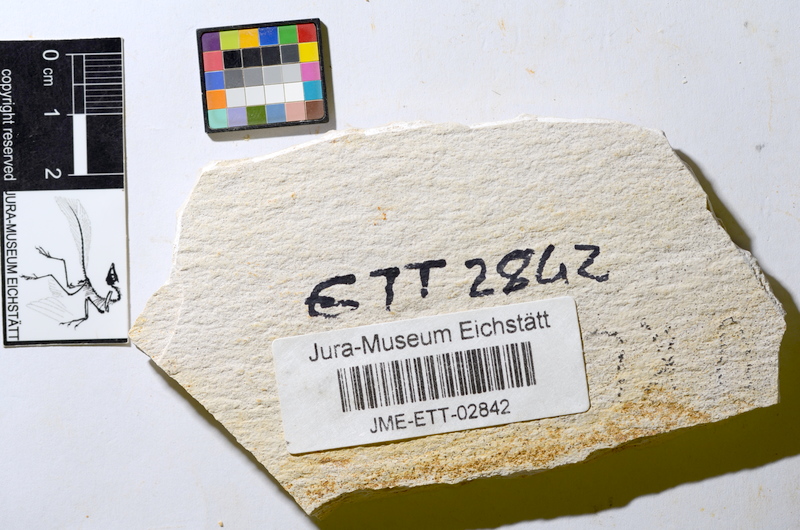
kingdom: Animalia
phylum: Chordata
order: Salmoniformes
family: Orthogonikleithridae
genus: Orthogonikleithrus
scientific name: Orthogonikleithrus hoelli
